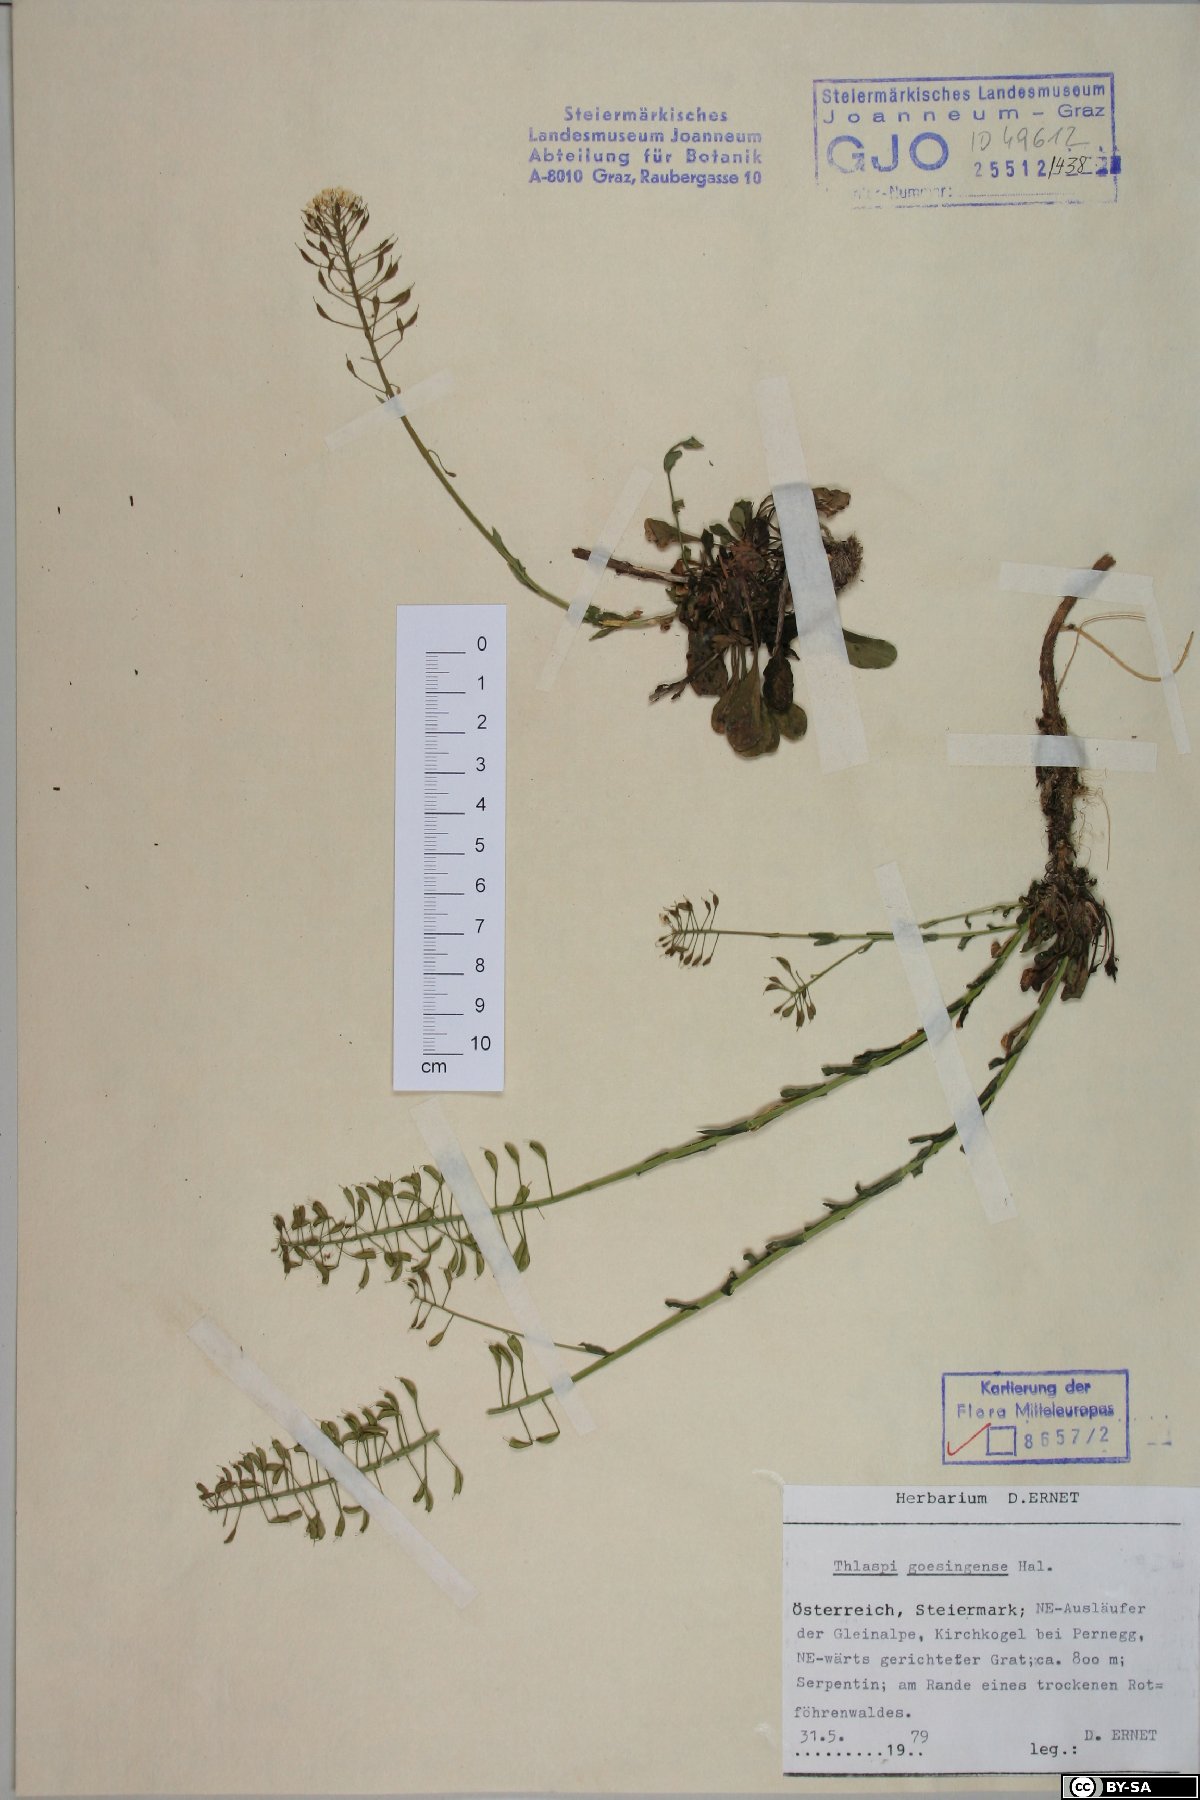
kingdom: Plantae
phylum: Tracheophyta
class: Magnoliopsida
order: Brassicales
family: Brassicaceae
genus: Noccaea
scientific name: Noccaea goesingensis
